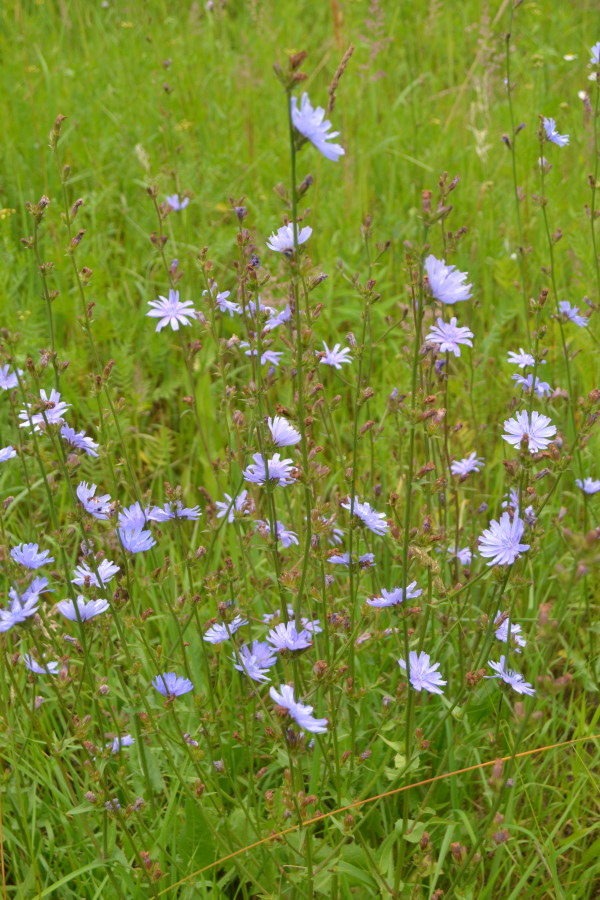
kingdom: Plantae
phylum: Tracheophyta
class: Magnoliopsida
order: Asterales
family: Asteraceae
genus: Cichorium
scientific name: Cichorium intybus
